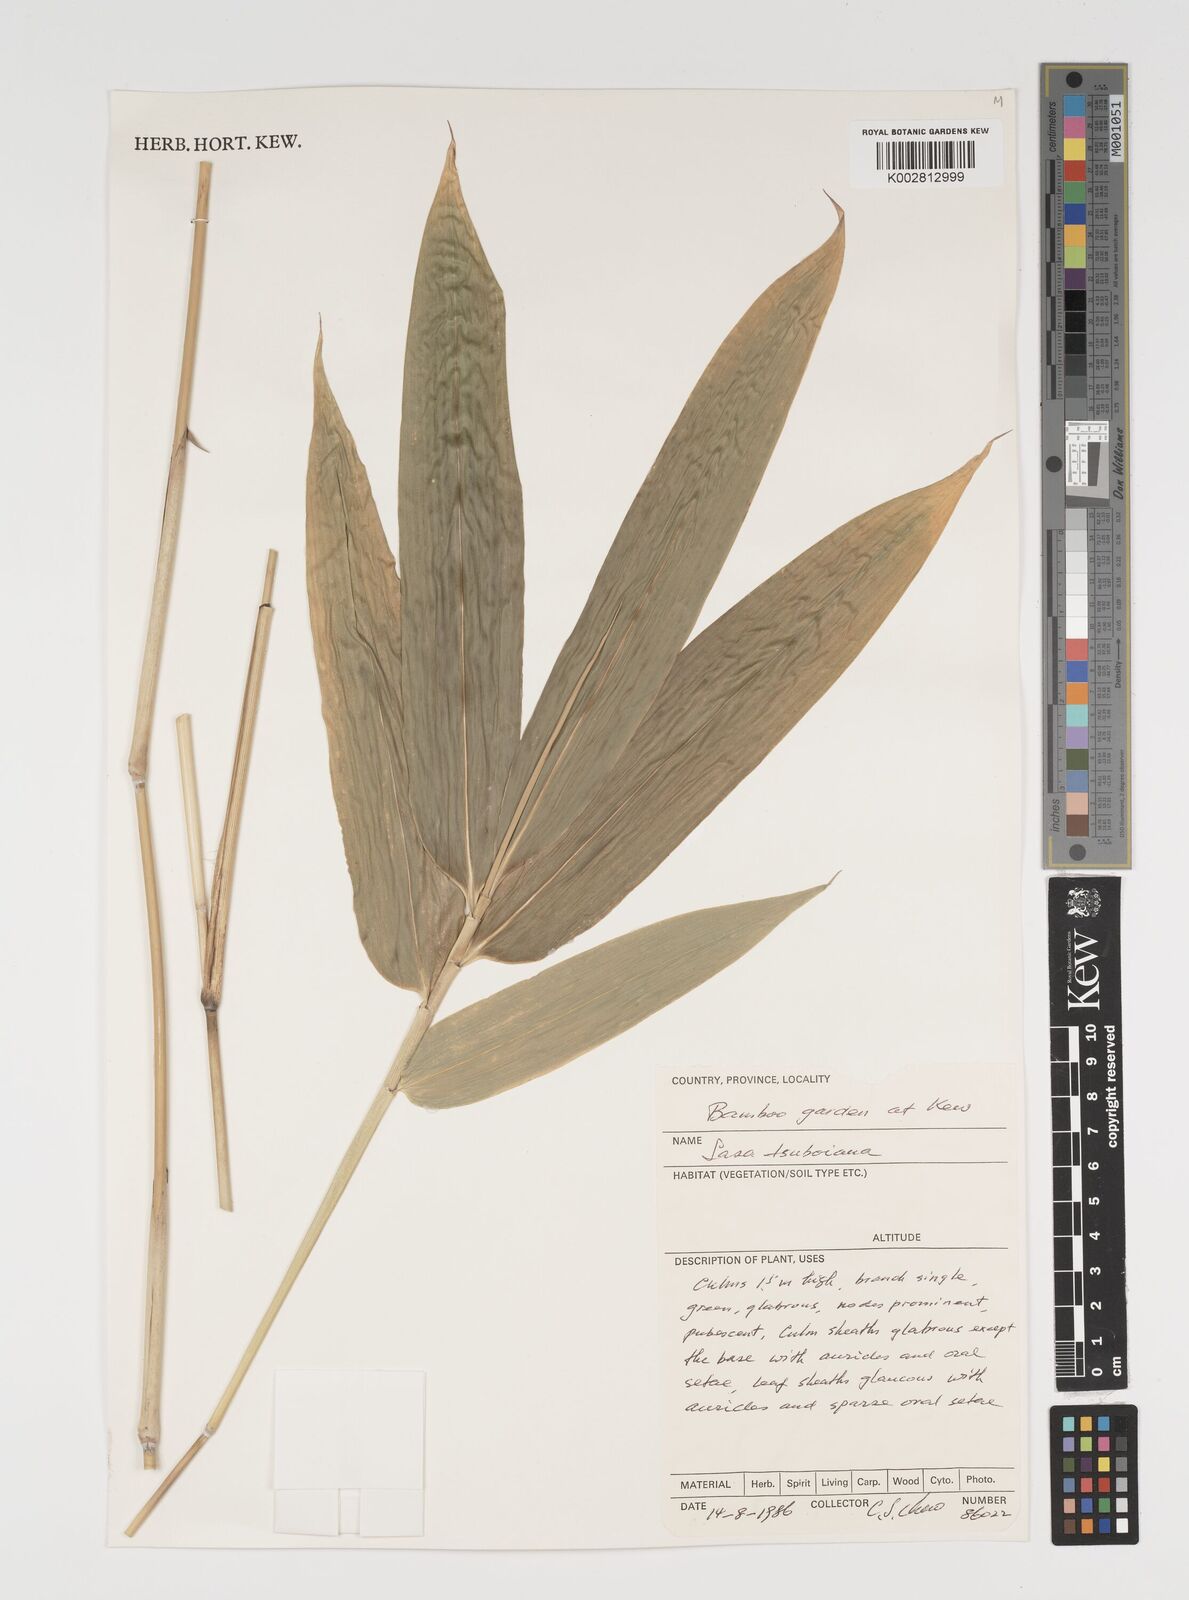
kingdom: Plantae
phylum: Tracheophyta
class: Liliopsida
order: Poales
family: Poaceae
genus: Sasa
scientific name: Sasa tsuboiana
